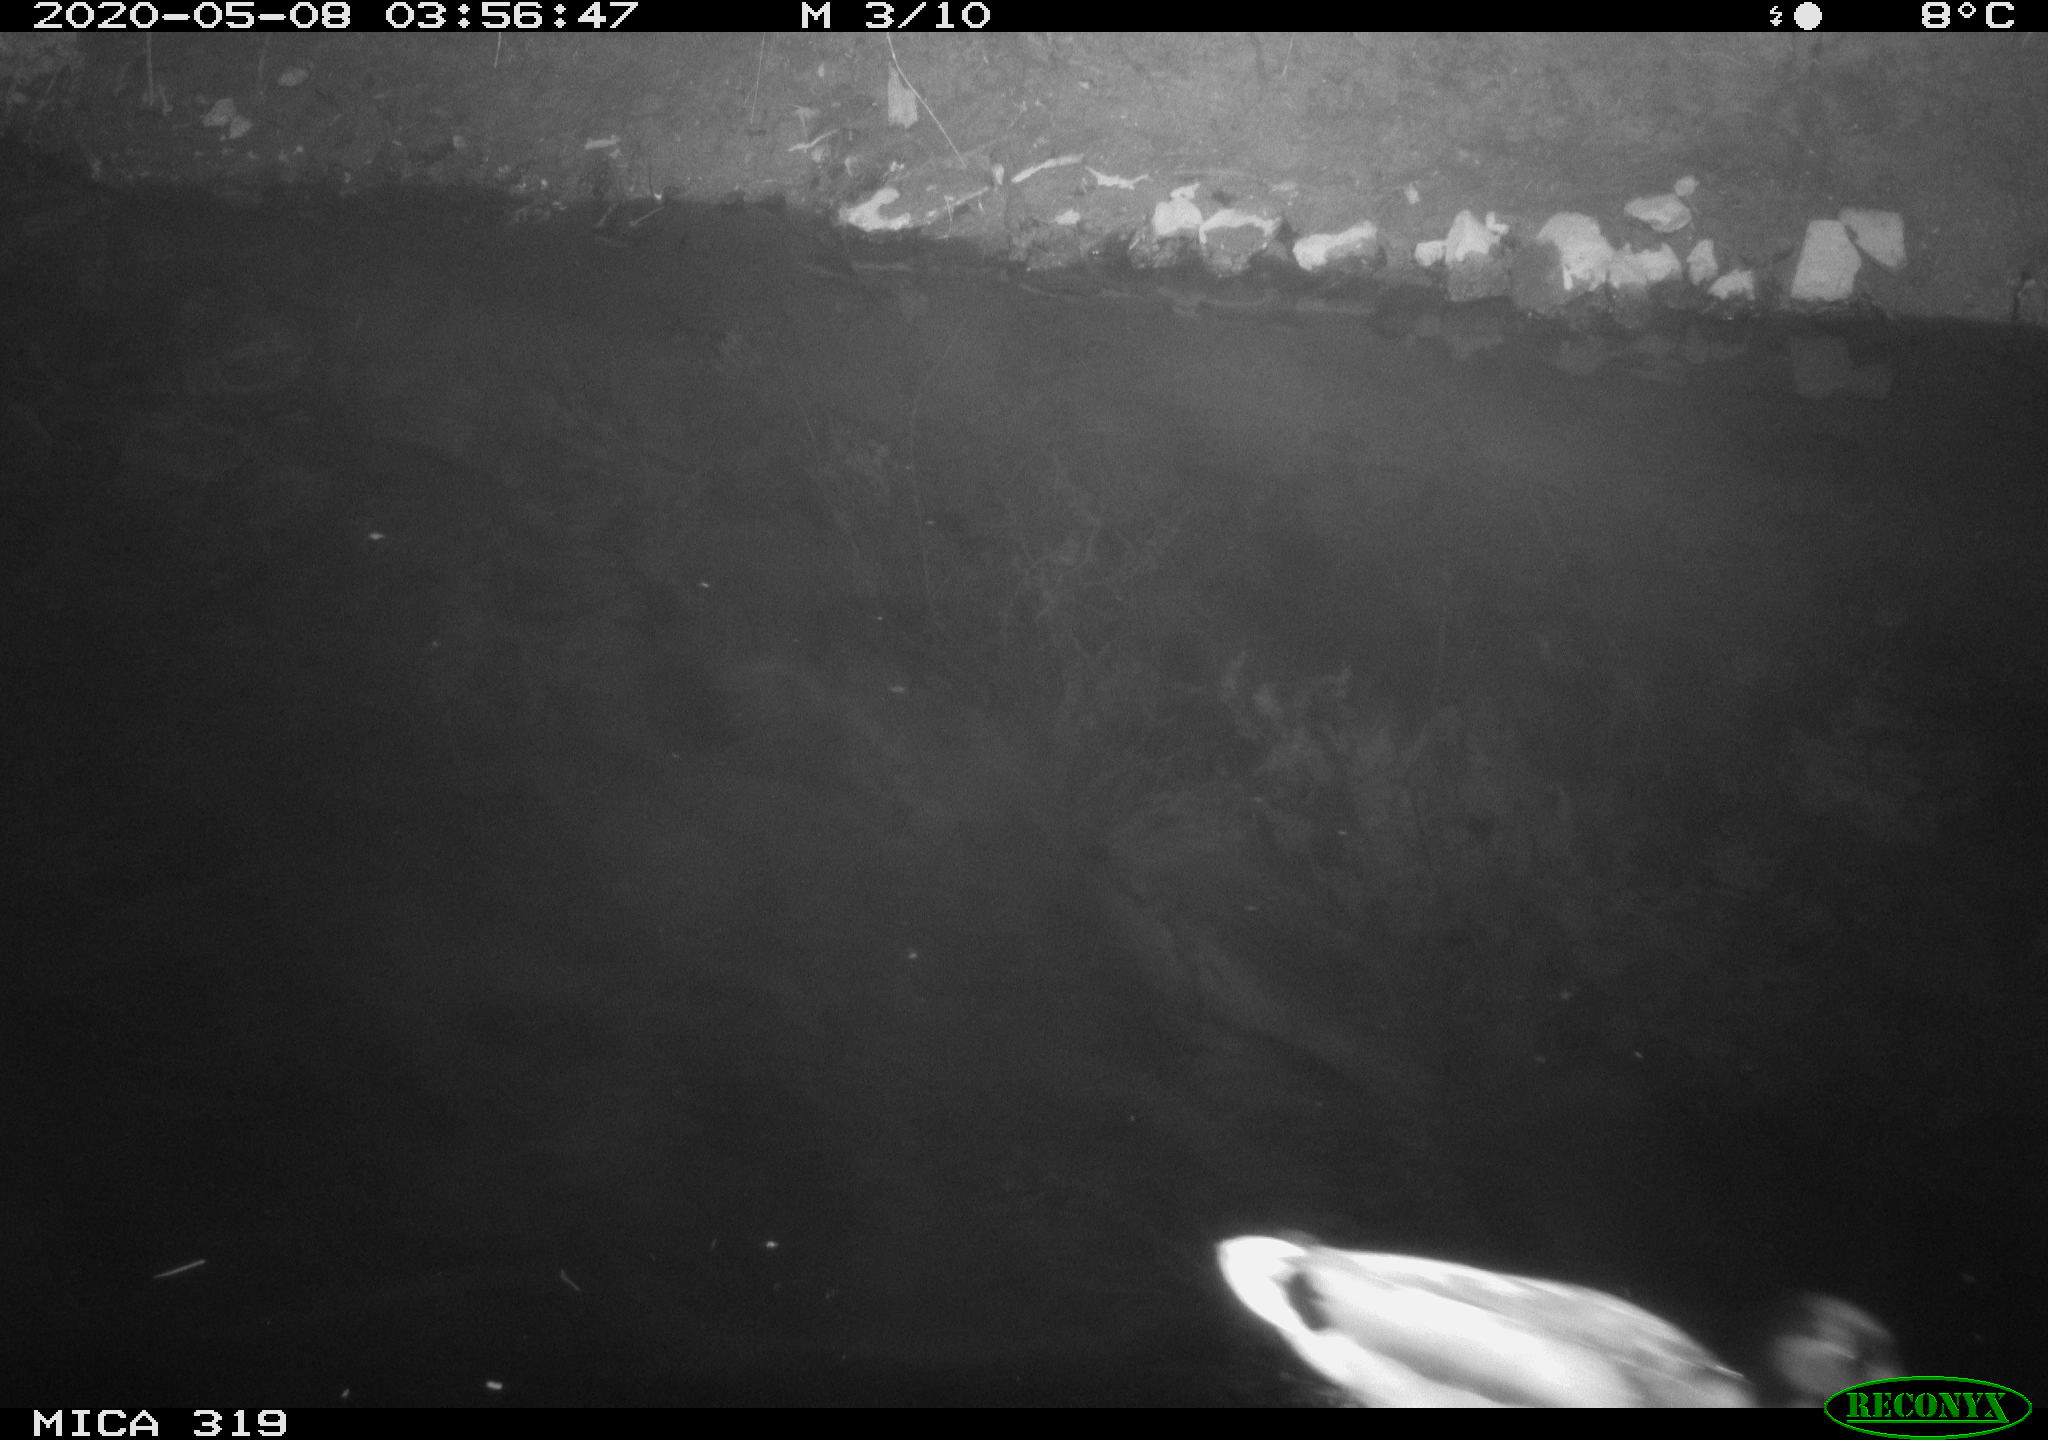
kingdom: Animalia
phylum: Chordata
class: Aves
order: Anseriformes
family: Anatidae
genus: Anas
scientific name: Anas platyrhynchos
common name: Mallard
